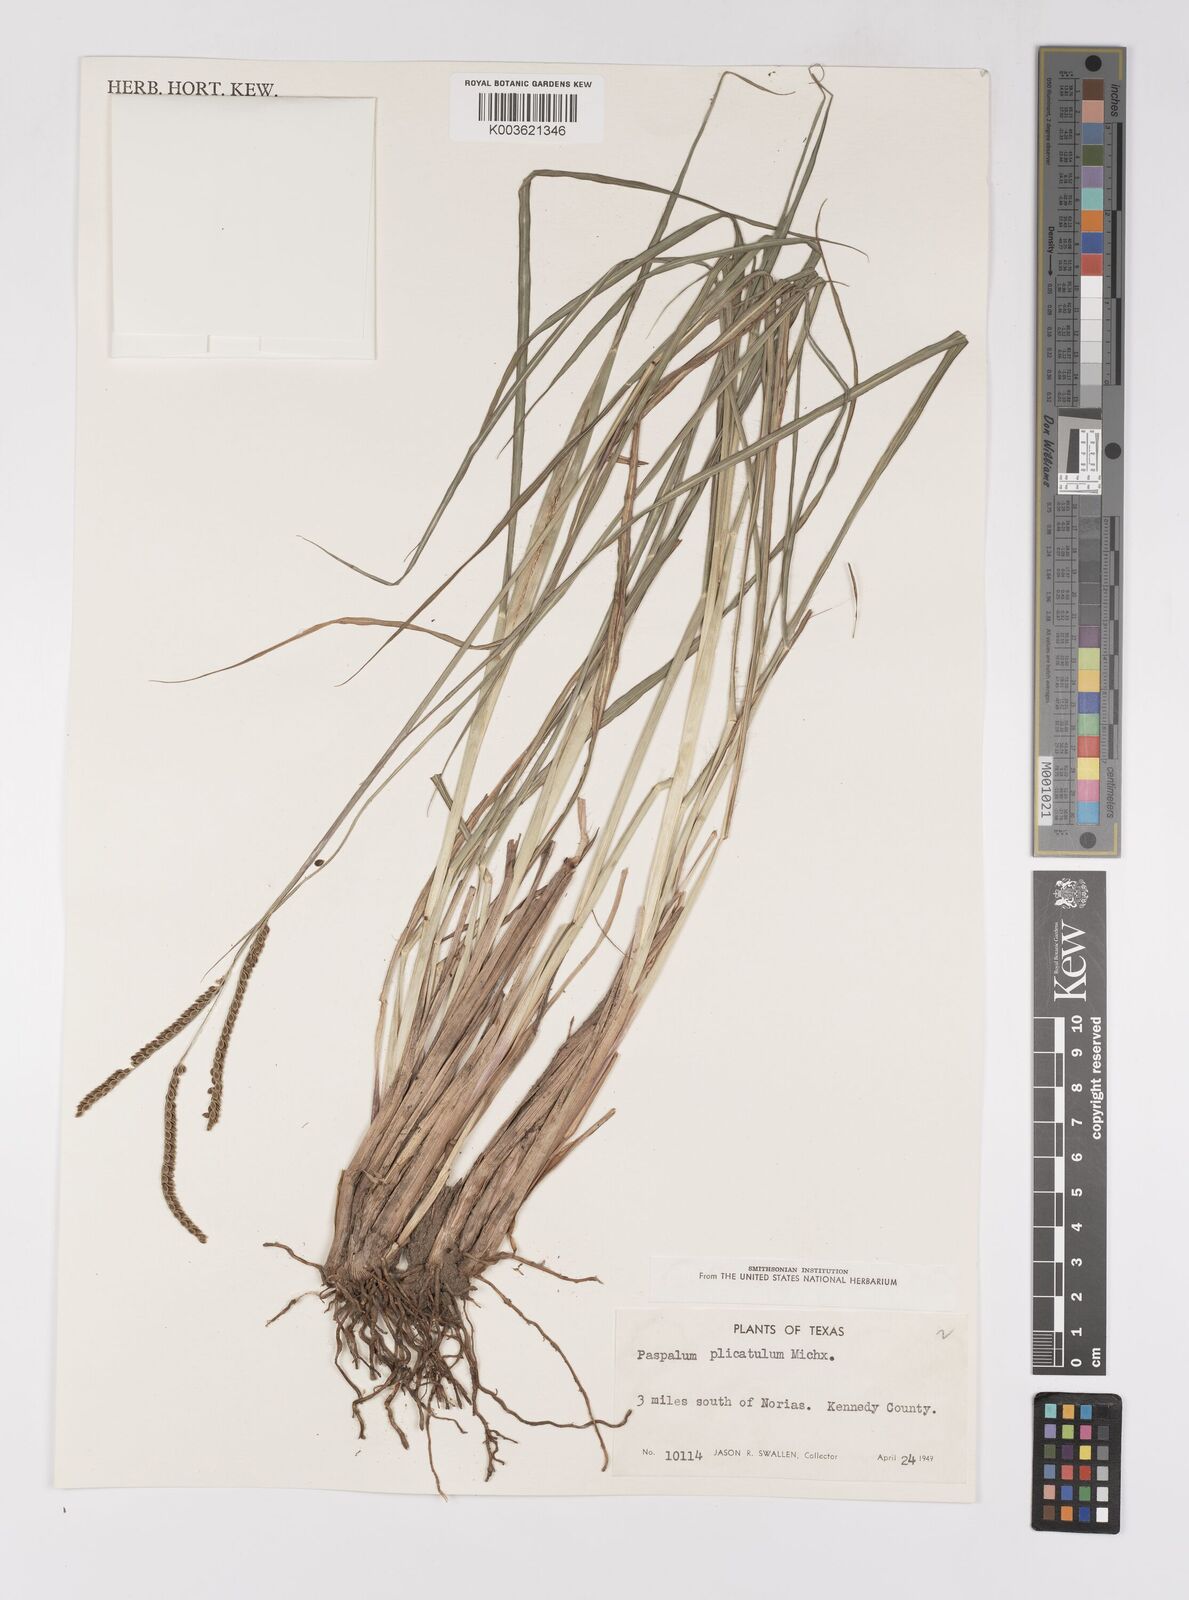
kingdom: Plantae
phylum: Tracheophyta
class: Liliopsida
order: Poales
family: Poaceae
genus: Paspalum
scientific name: Paspalum plicatulum
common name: Top paspalum
